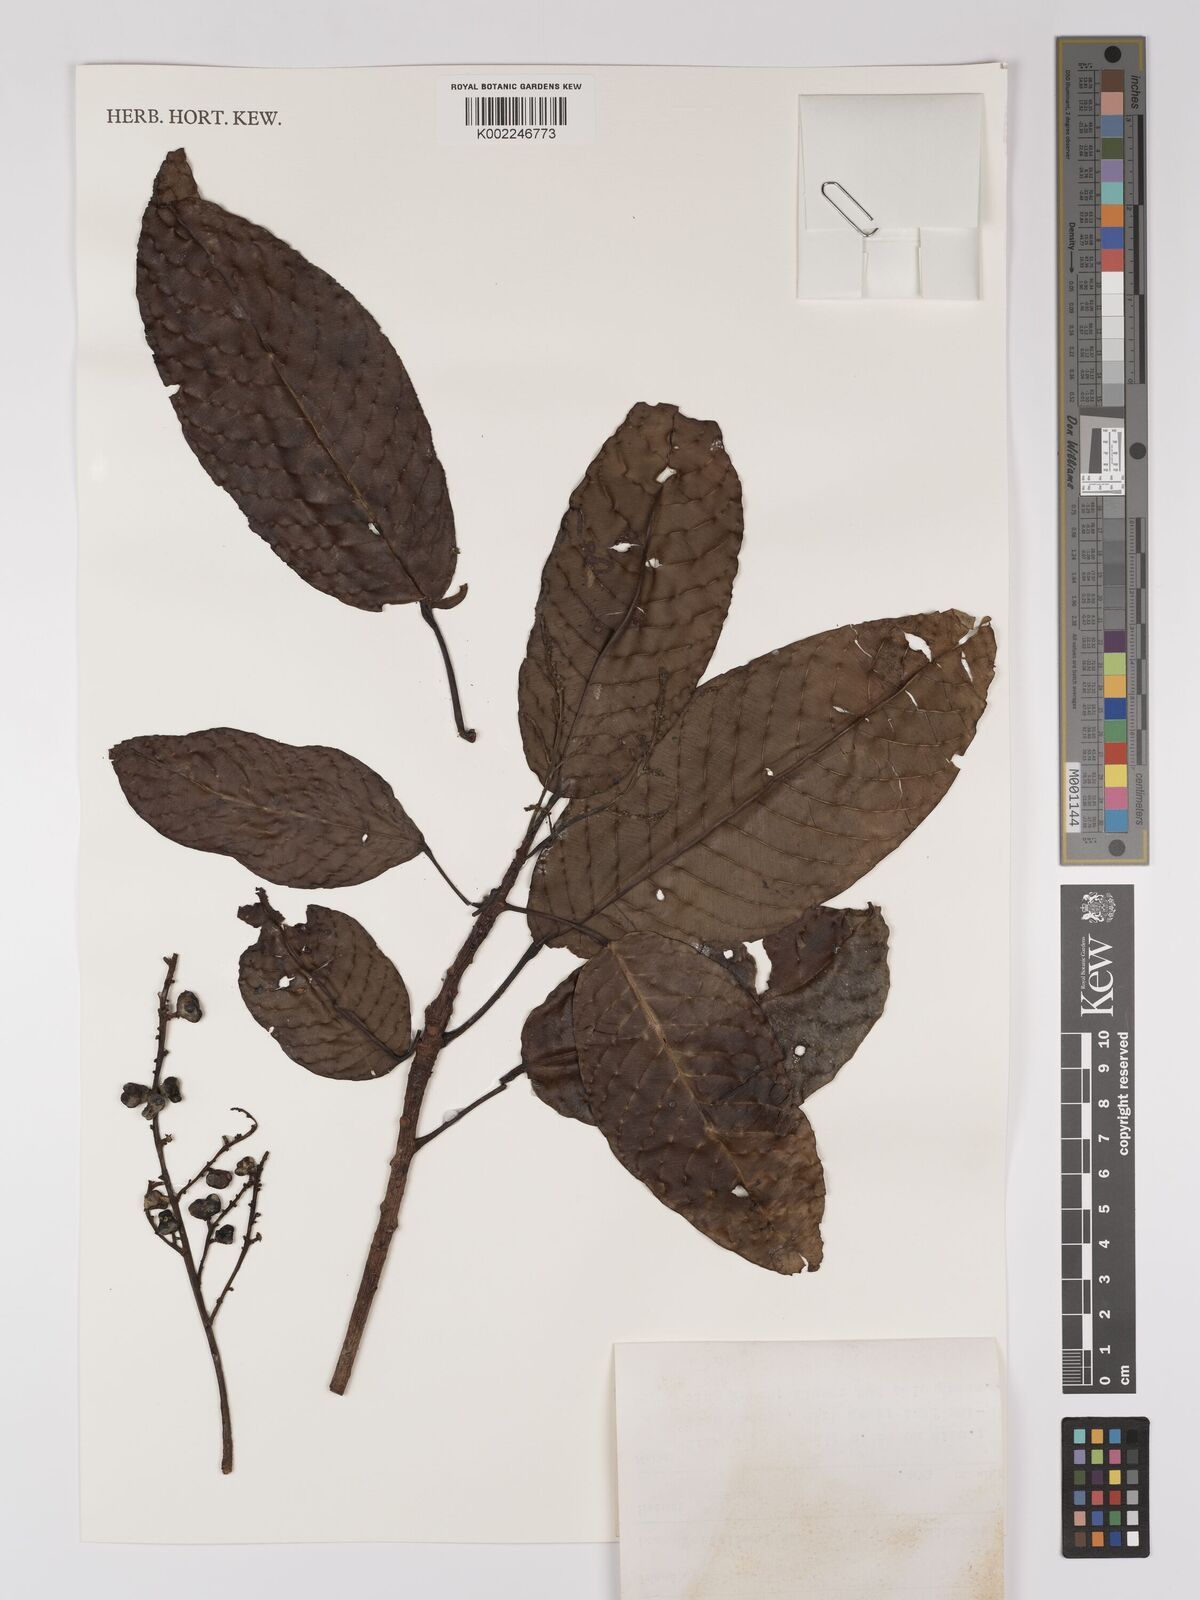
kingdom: Plantae
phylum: Tracheophyta
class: Magnoliopsida
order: Malpighiales
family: Centroplacaceae
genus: Bhesa
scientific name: Bhesa paniculata
